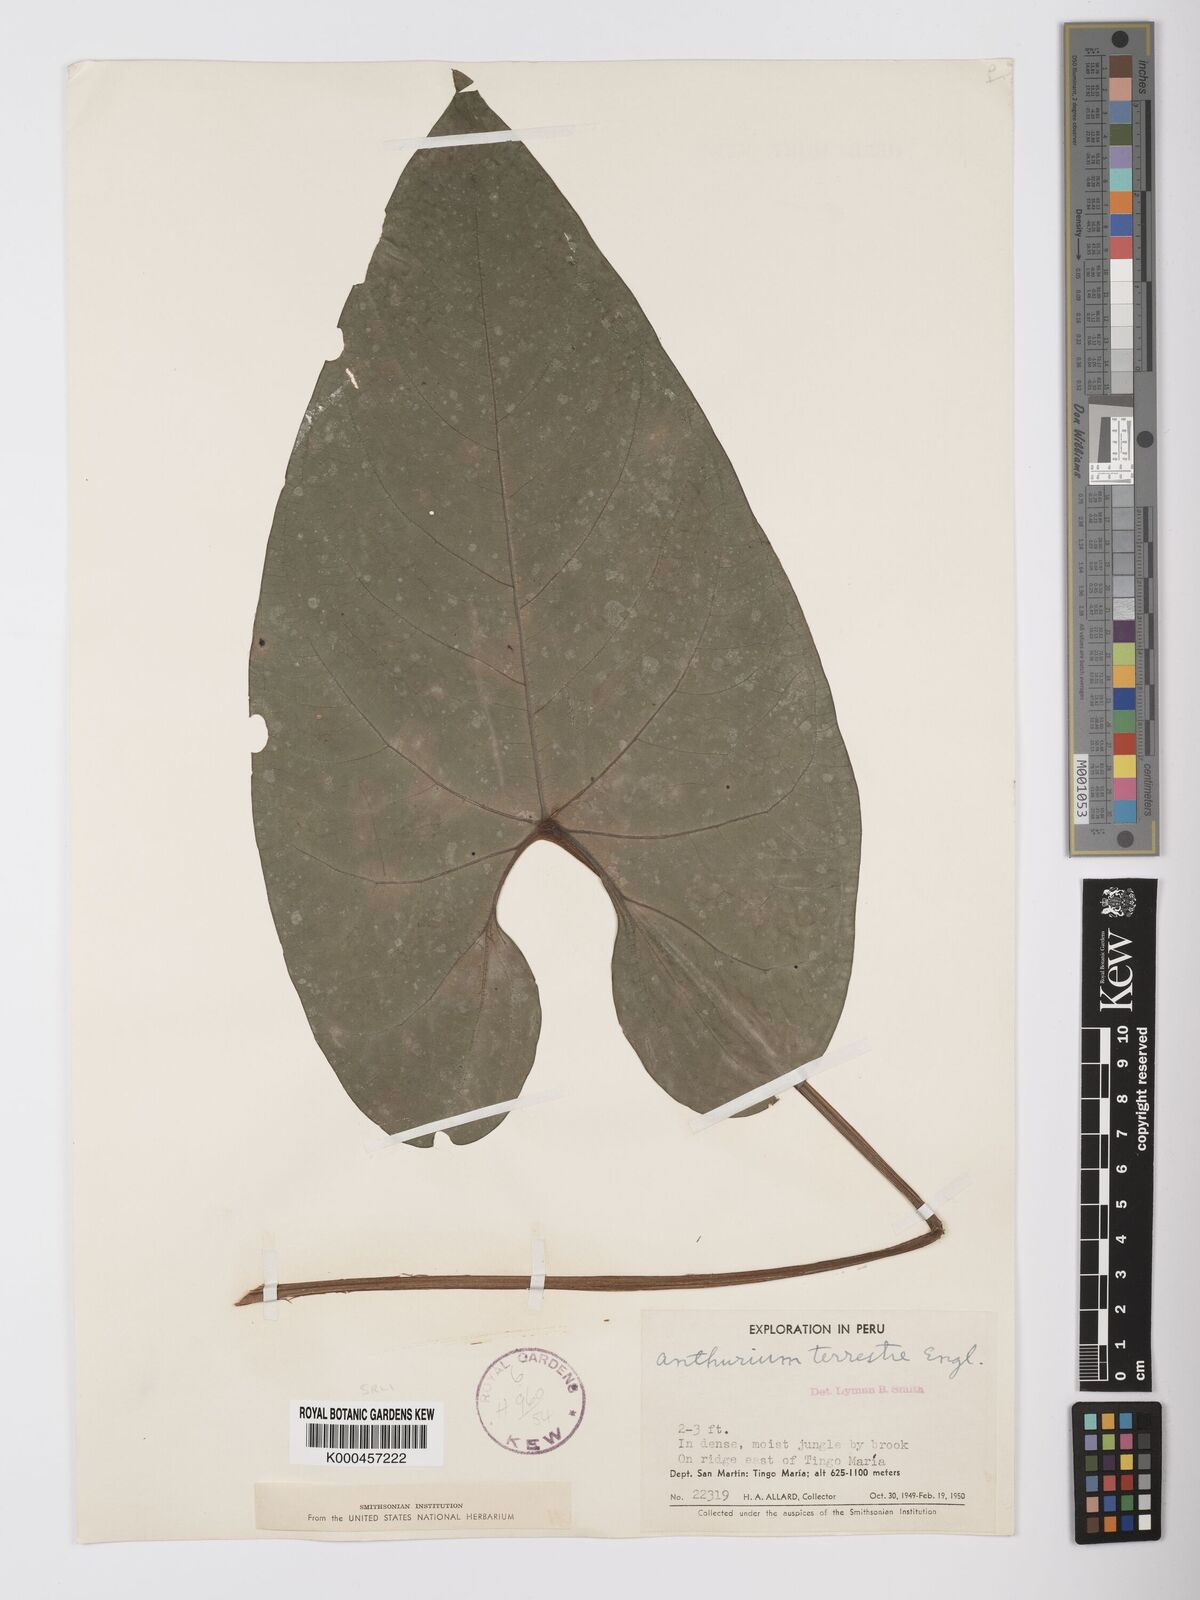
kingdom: Plantae
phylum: Tracheophyta
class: Liliopsida
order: Alismatales
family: Araceae
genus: Anthurium
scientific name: Anthurium sagittatum
